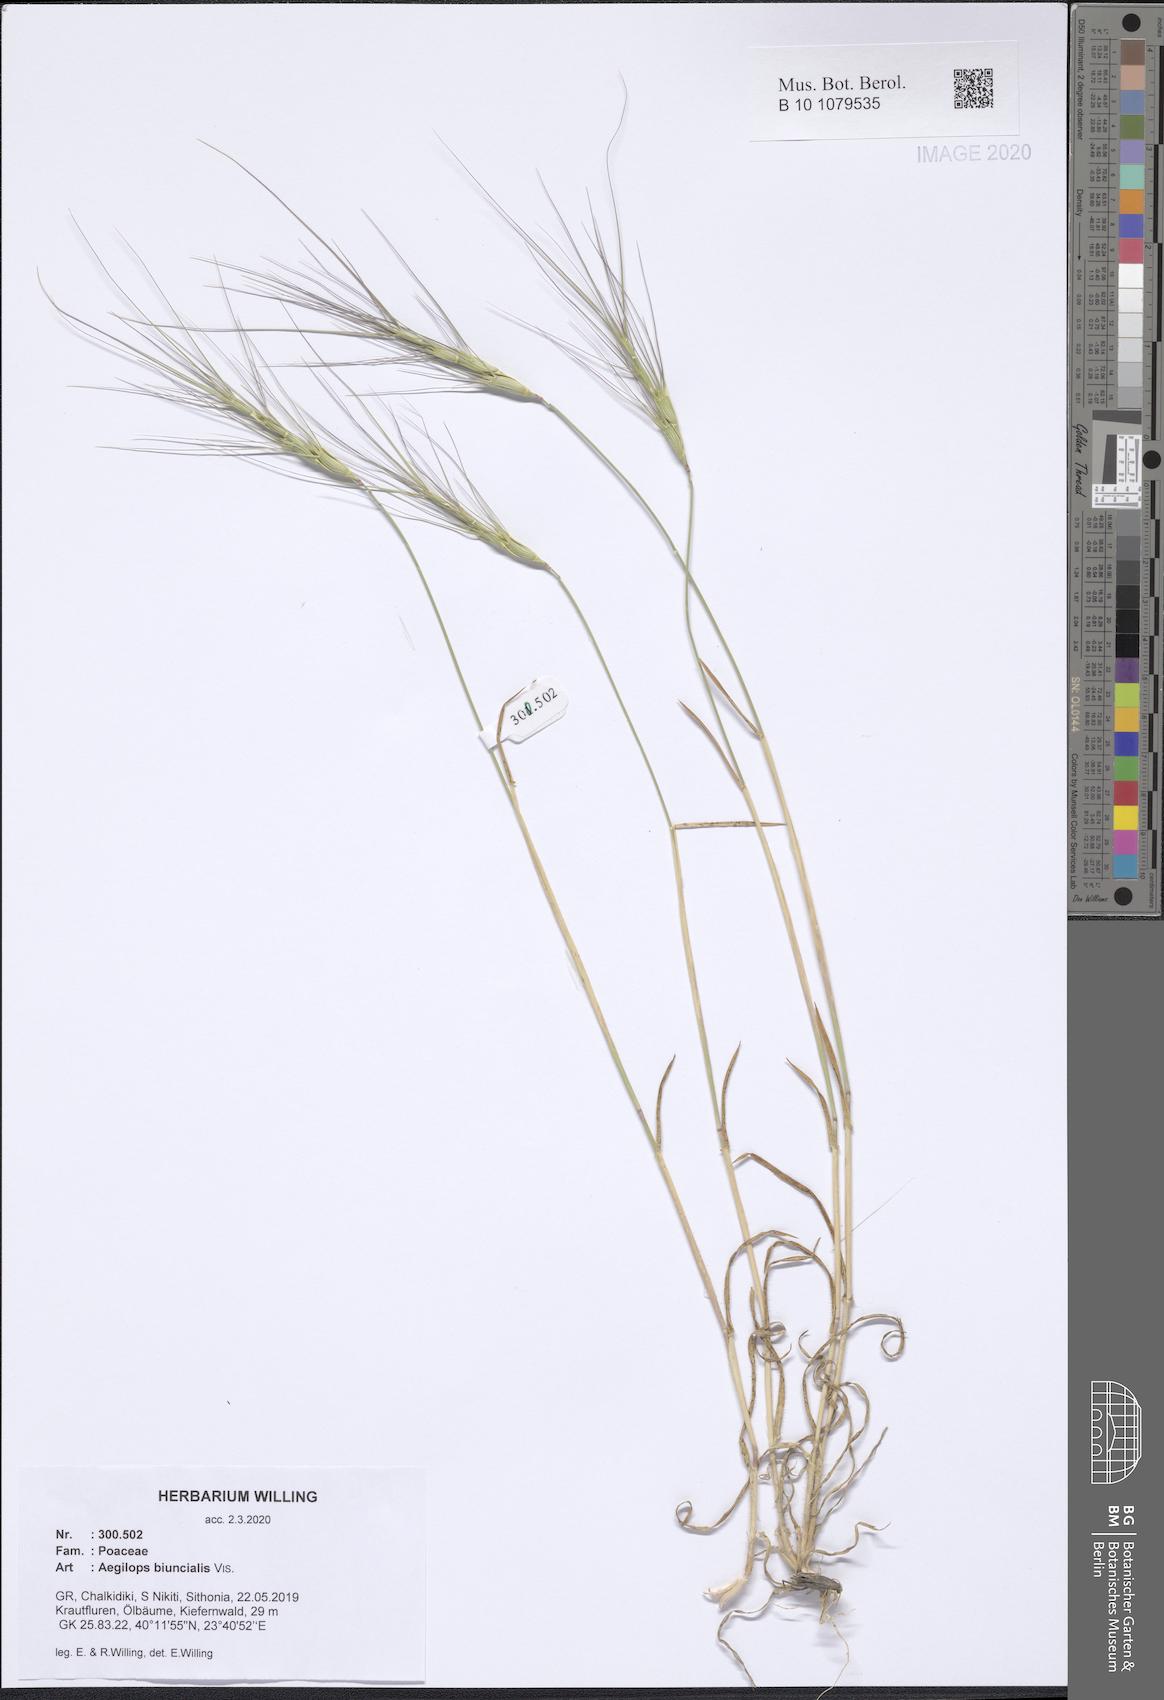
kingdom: Plantae
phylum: Tracheophyta
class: Liliopsida
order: Poales
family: Poaceae
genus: Aegilops
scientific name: Aegilops biuncialis
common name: Mediterranean aegilops
